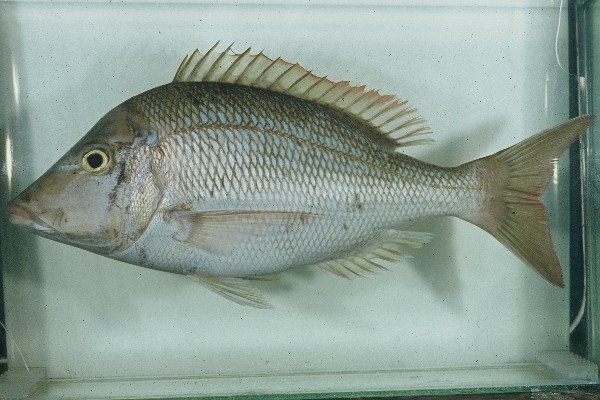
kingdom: Animalia
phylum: Chordata
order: Perciformes
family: Lethrinidae
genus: Lethrinus
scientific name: Lethrinus nebulosus
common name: Spangled emperor
